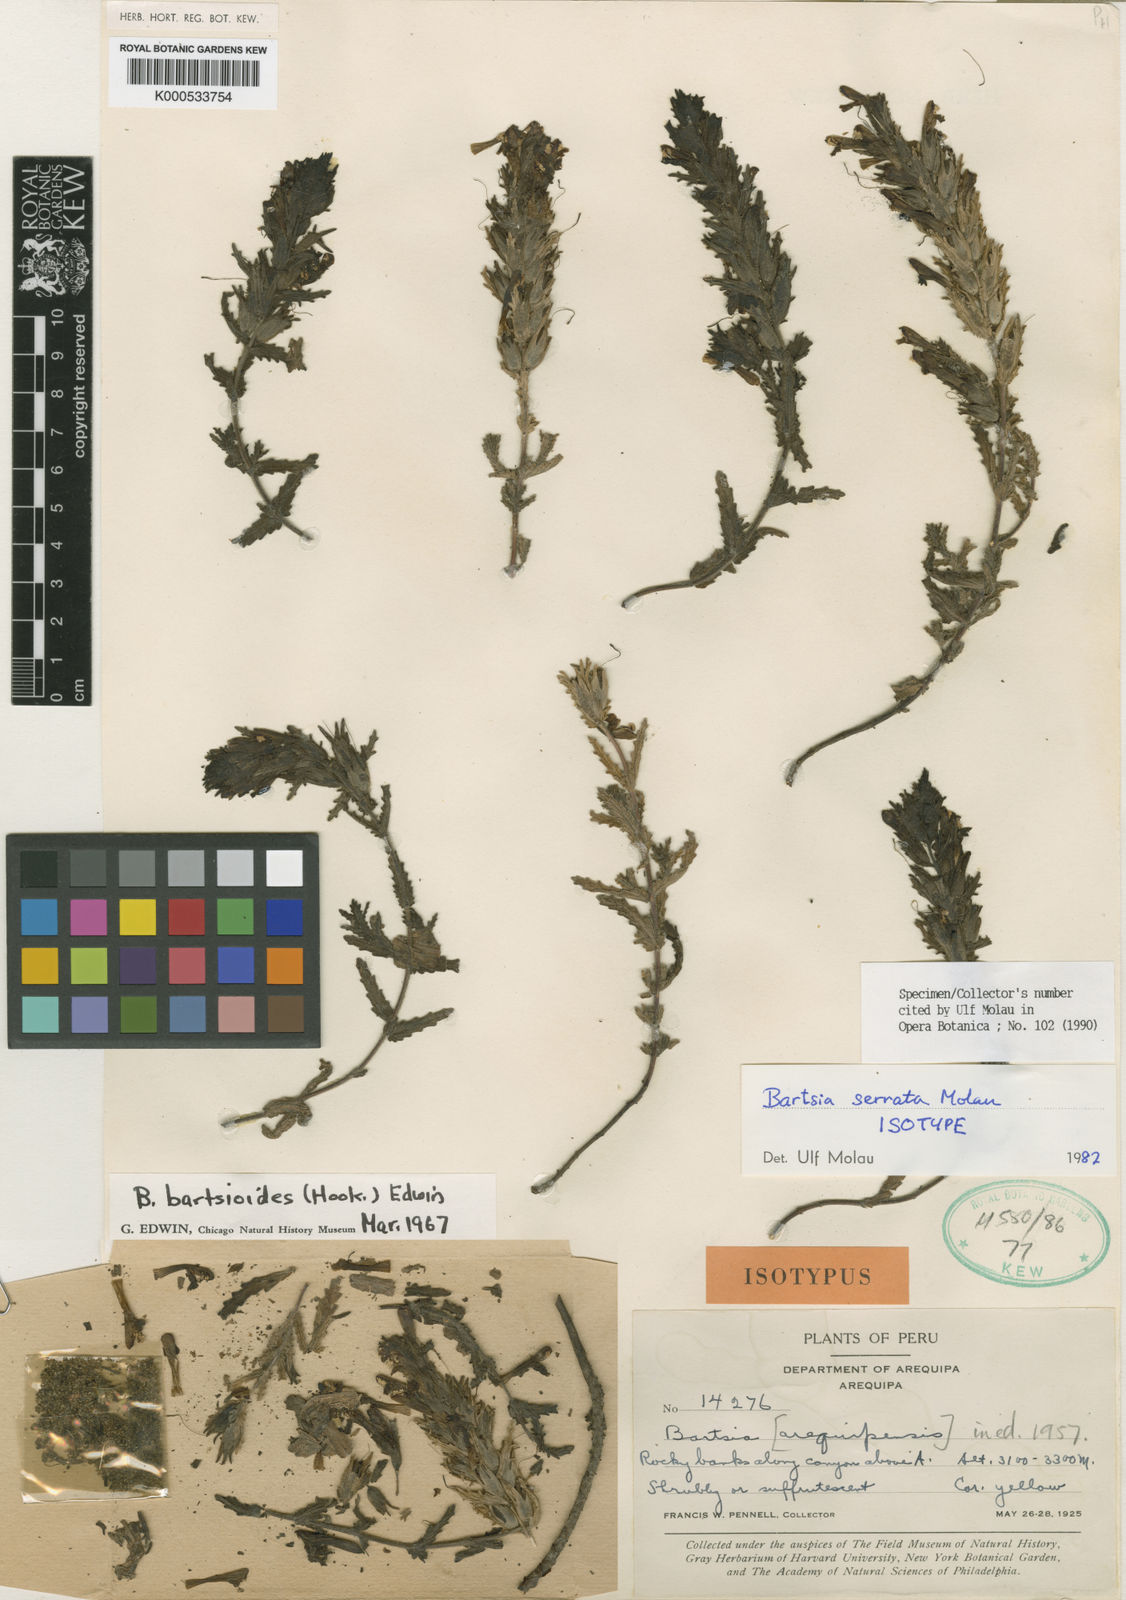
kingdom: Plantae
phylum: Tracheophyta
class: Magnoliopsida
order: Lamiales
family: Orobanchaceae
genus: Neobartsia
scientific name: Neobartsia serrata
